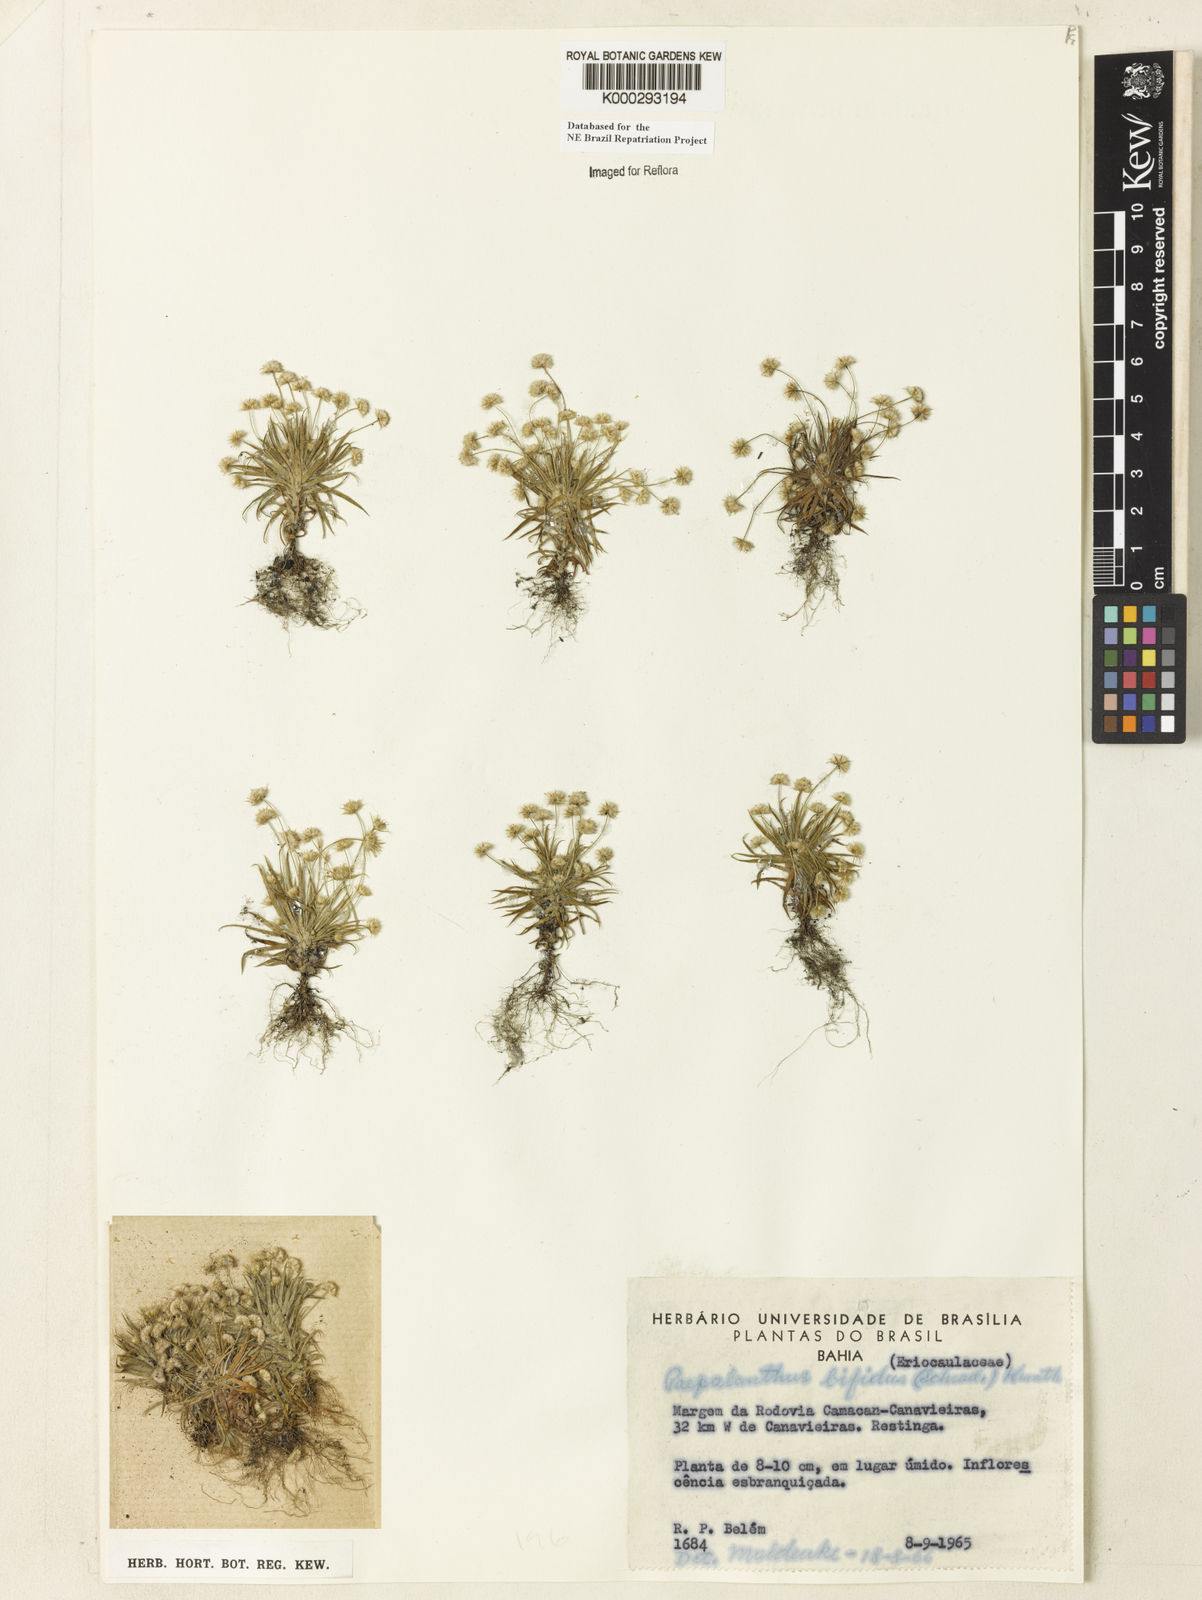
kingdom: Plantae
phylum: Tracheophyta
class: Liliopsida
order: Poales
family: Eriocaulaceae
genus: Paepalanthus
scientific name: Paepalanthus bifidus
